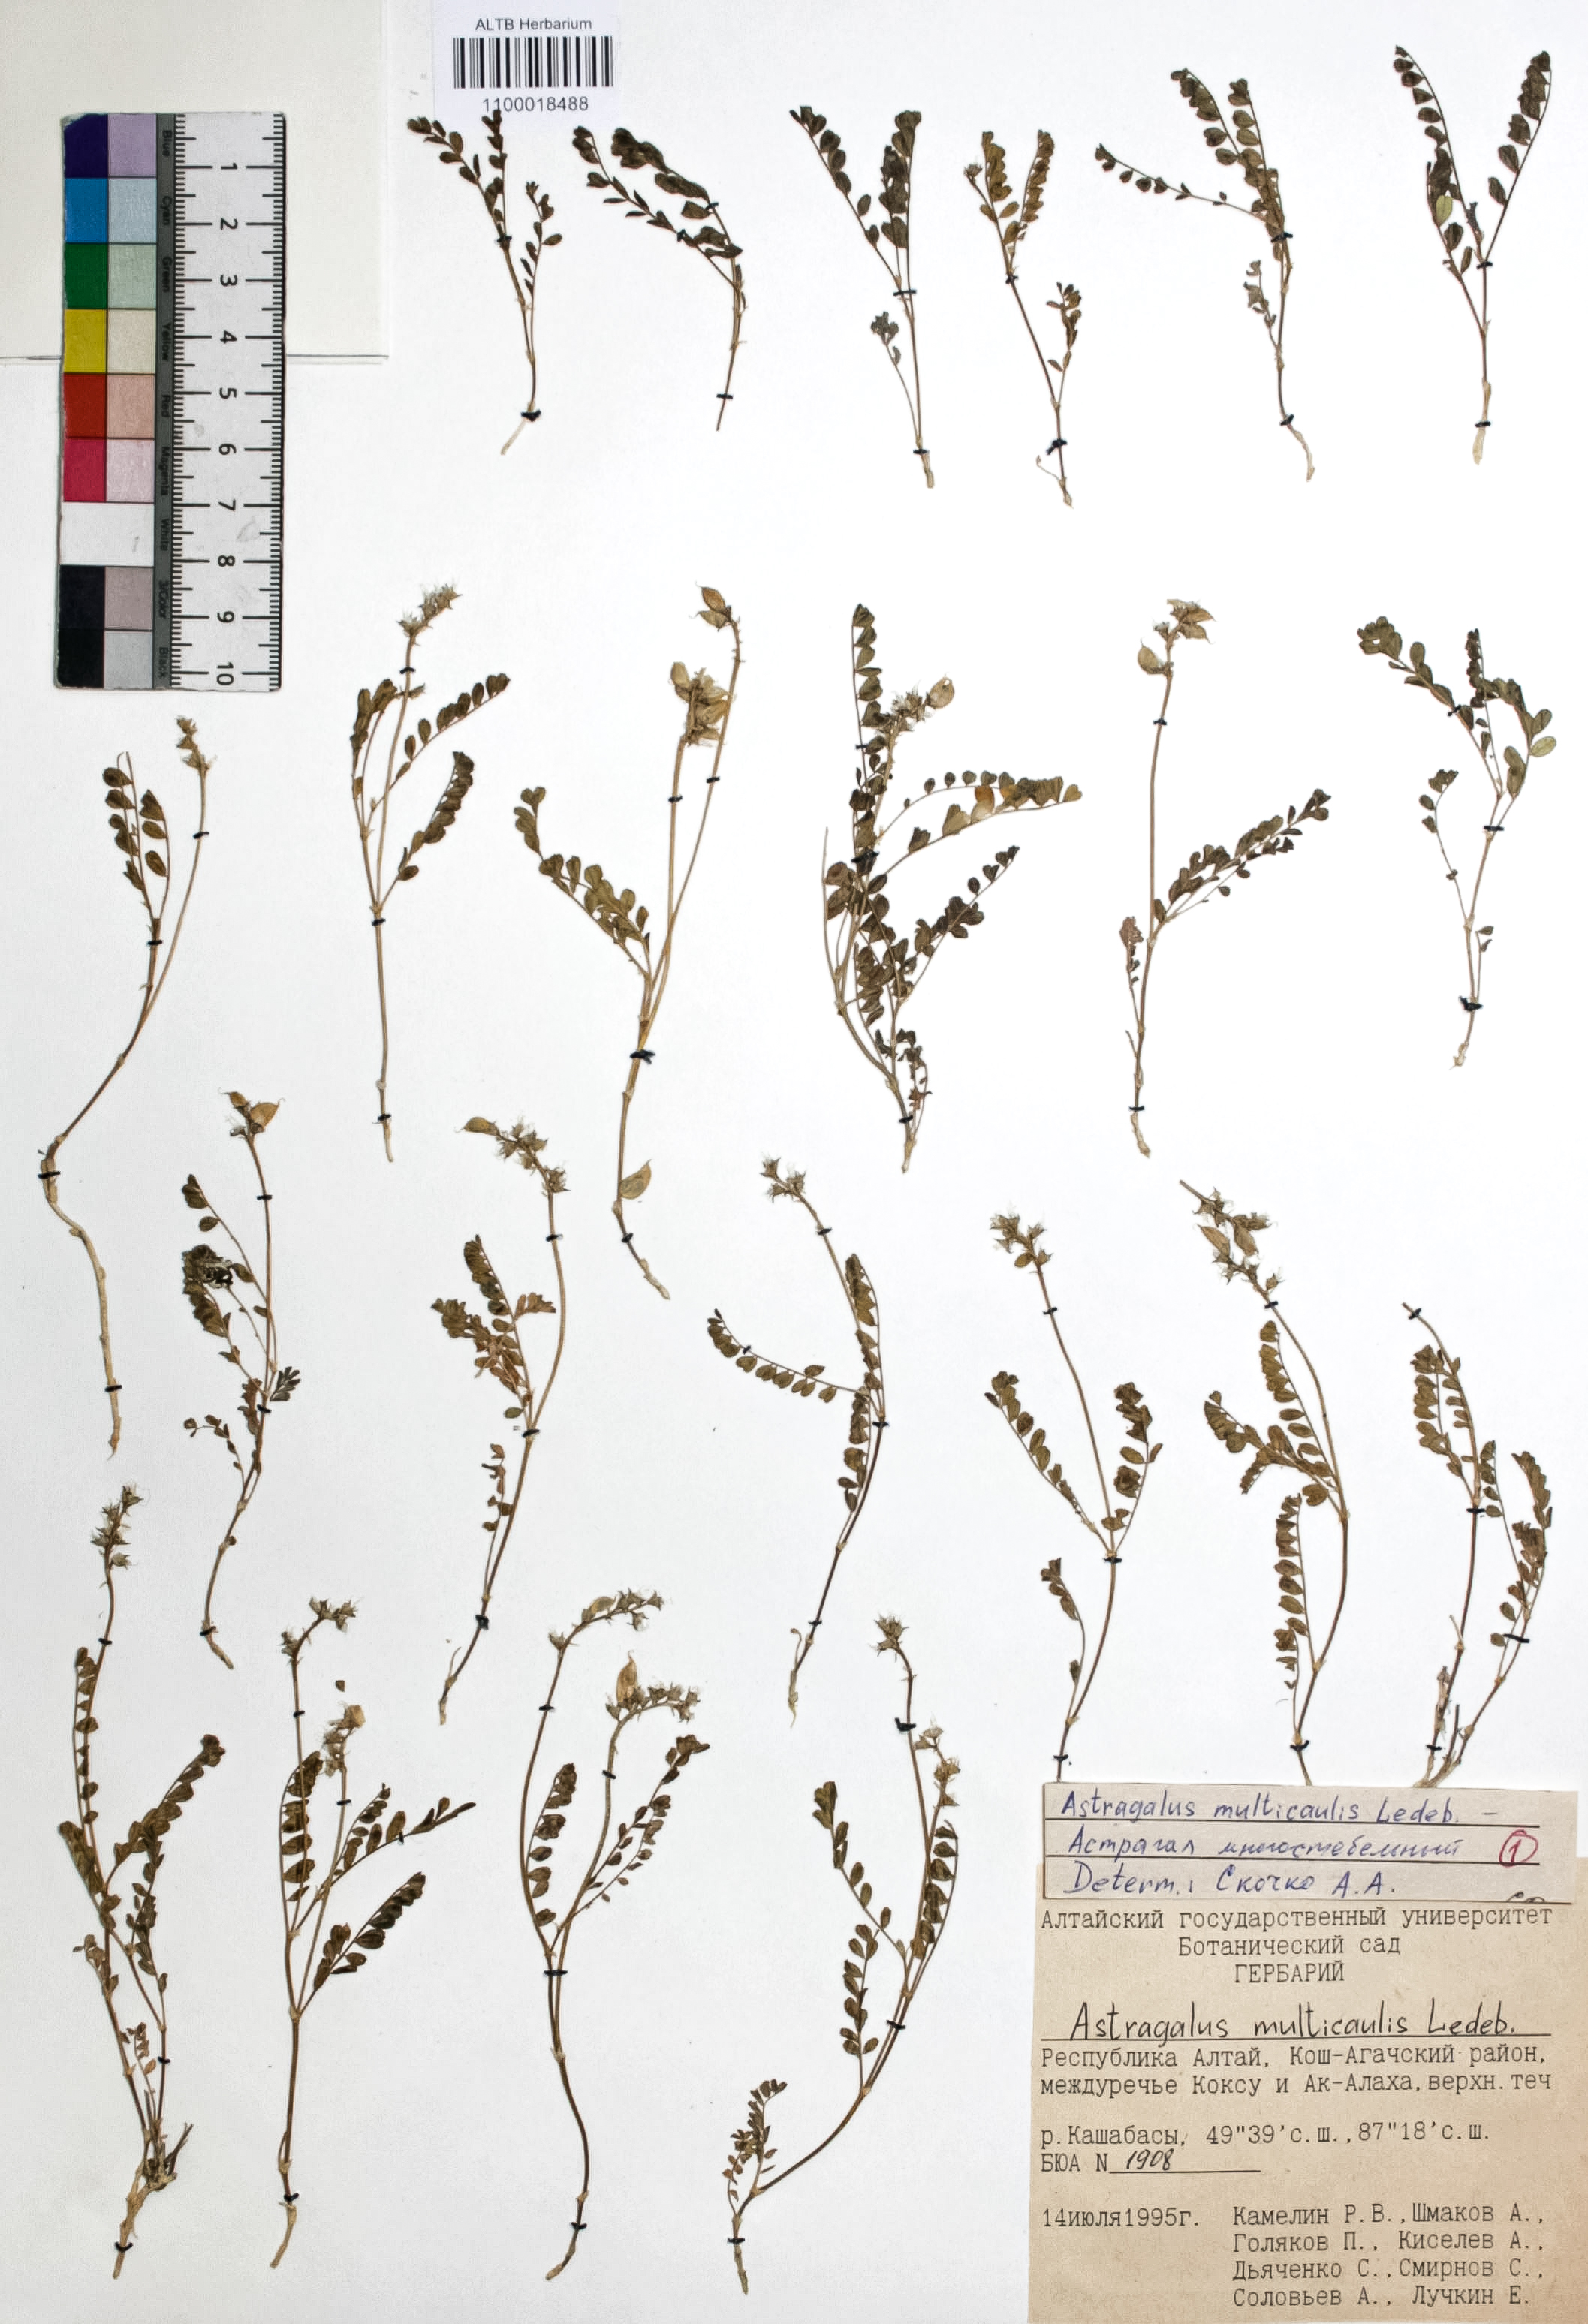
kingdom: Plantae
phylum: Tracheophyta
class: Magnoliopsida
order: Fabales
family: Fabaceae
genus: Astragalus
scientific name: Astragalus leptostachys
